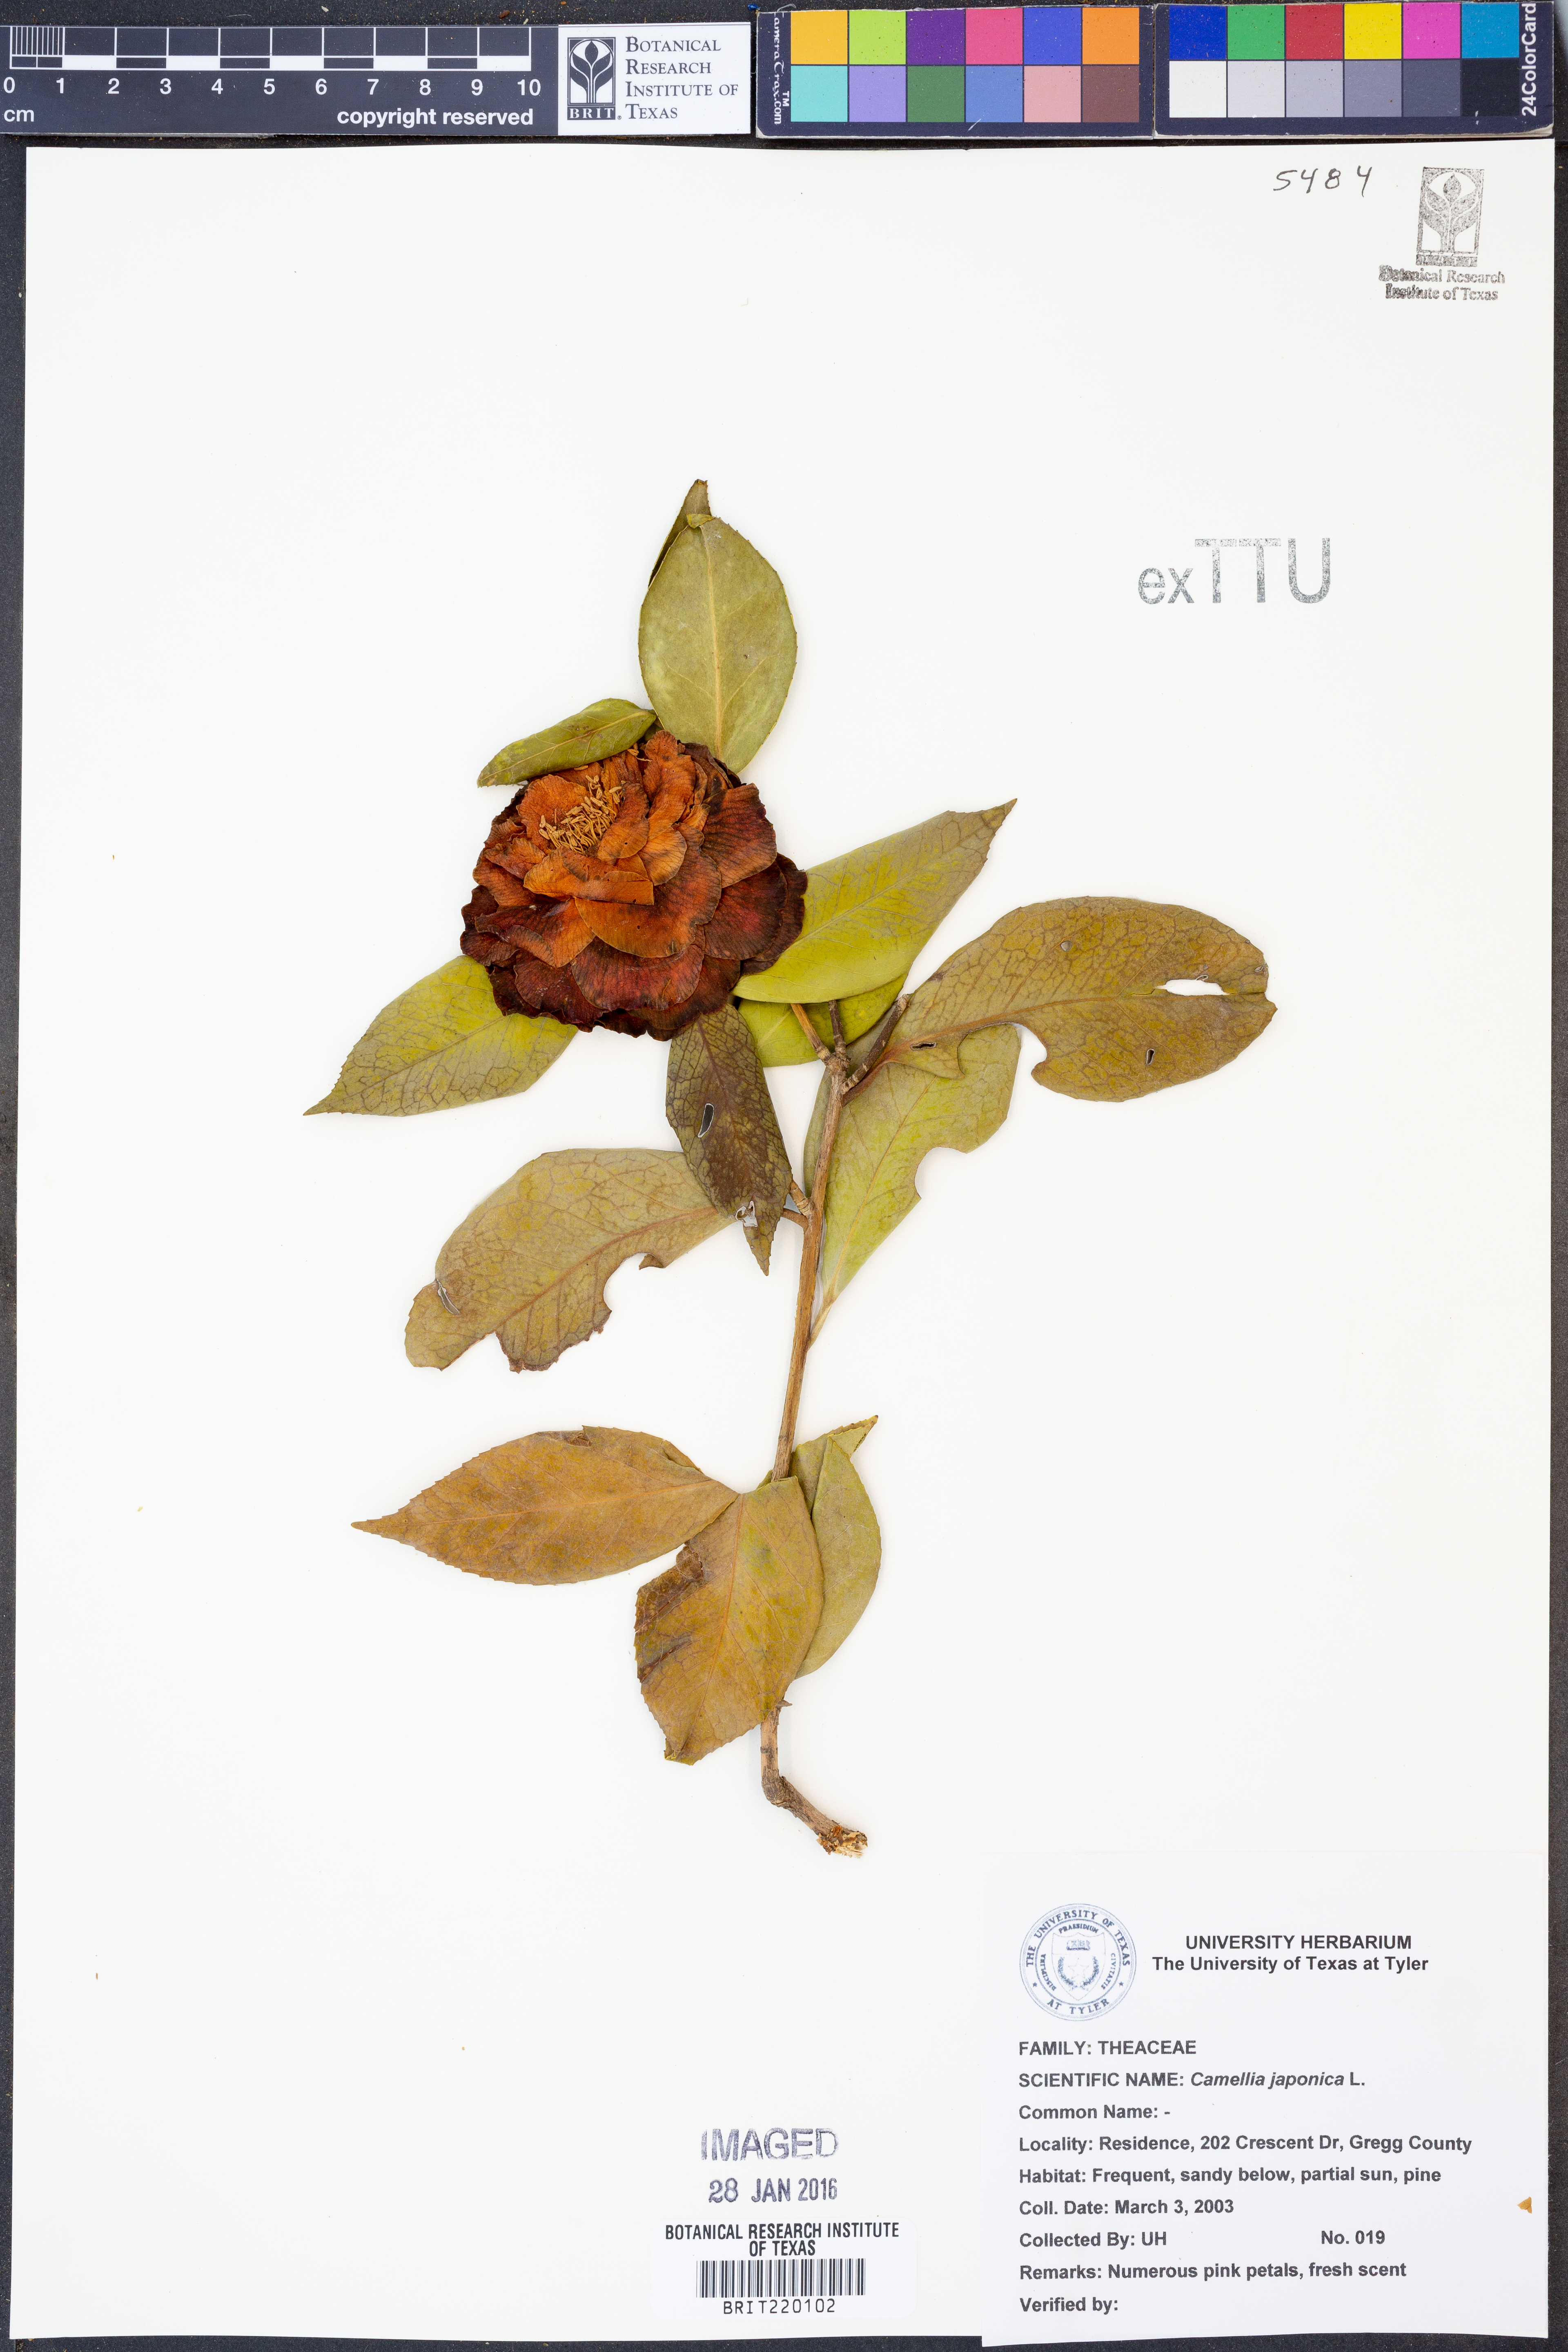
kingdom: Plantae
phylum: Tracheophyta
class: Magnoliopsida
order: Ericales
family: Theaceae
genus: Camellia
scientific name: Camellia japonica
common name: Camellia
